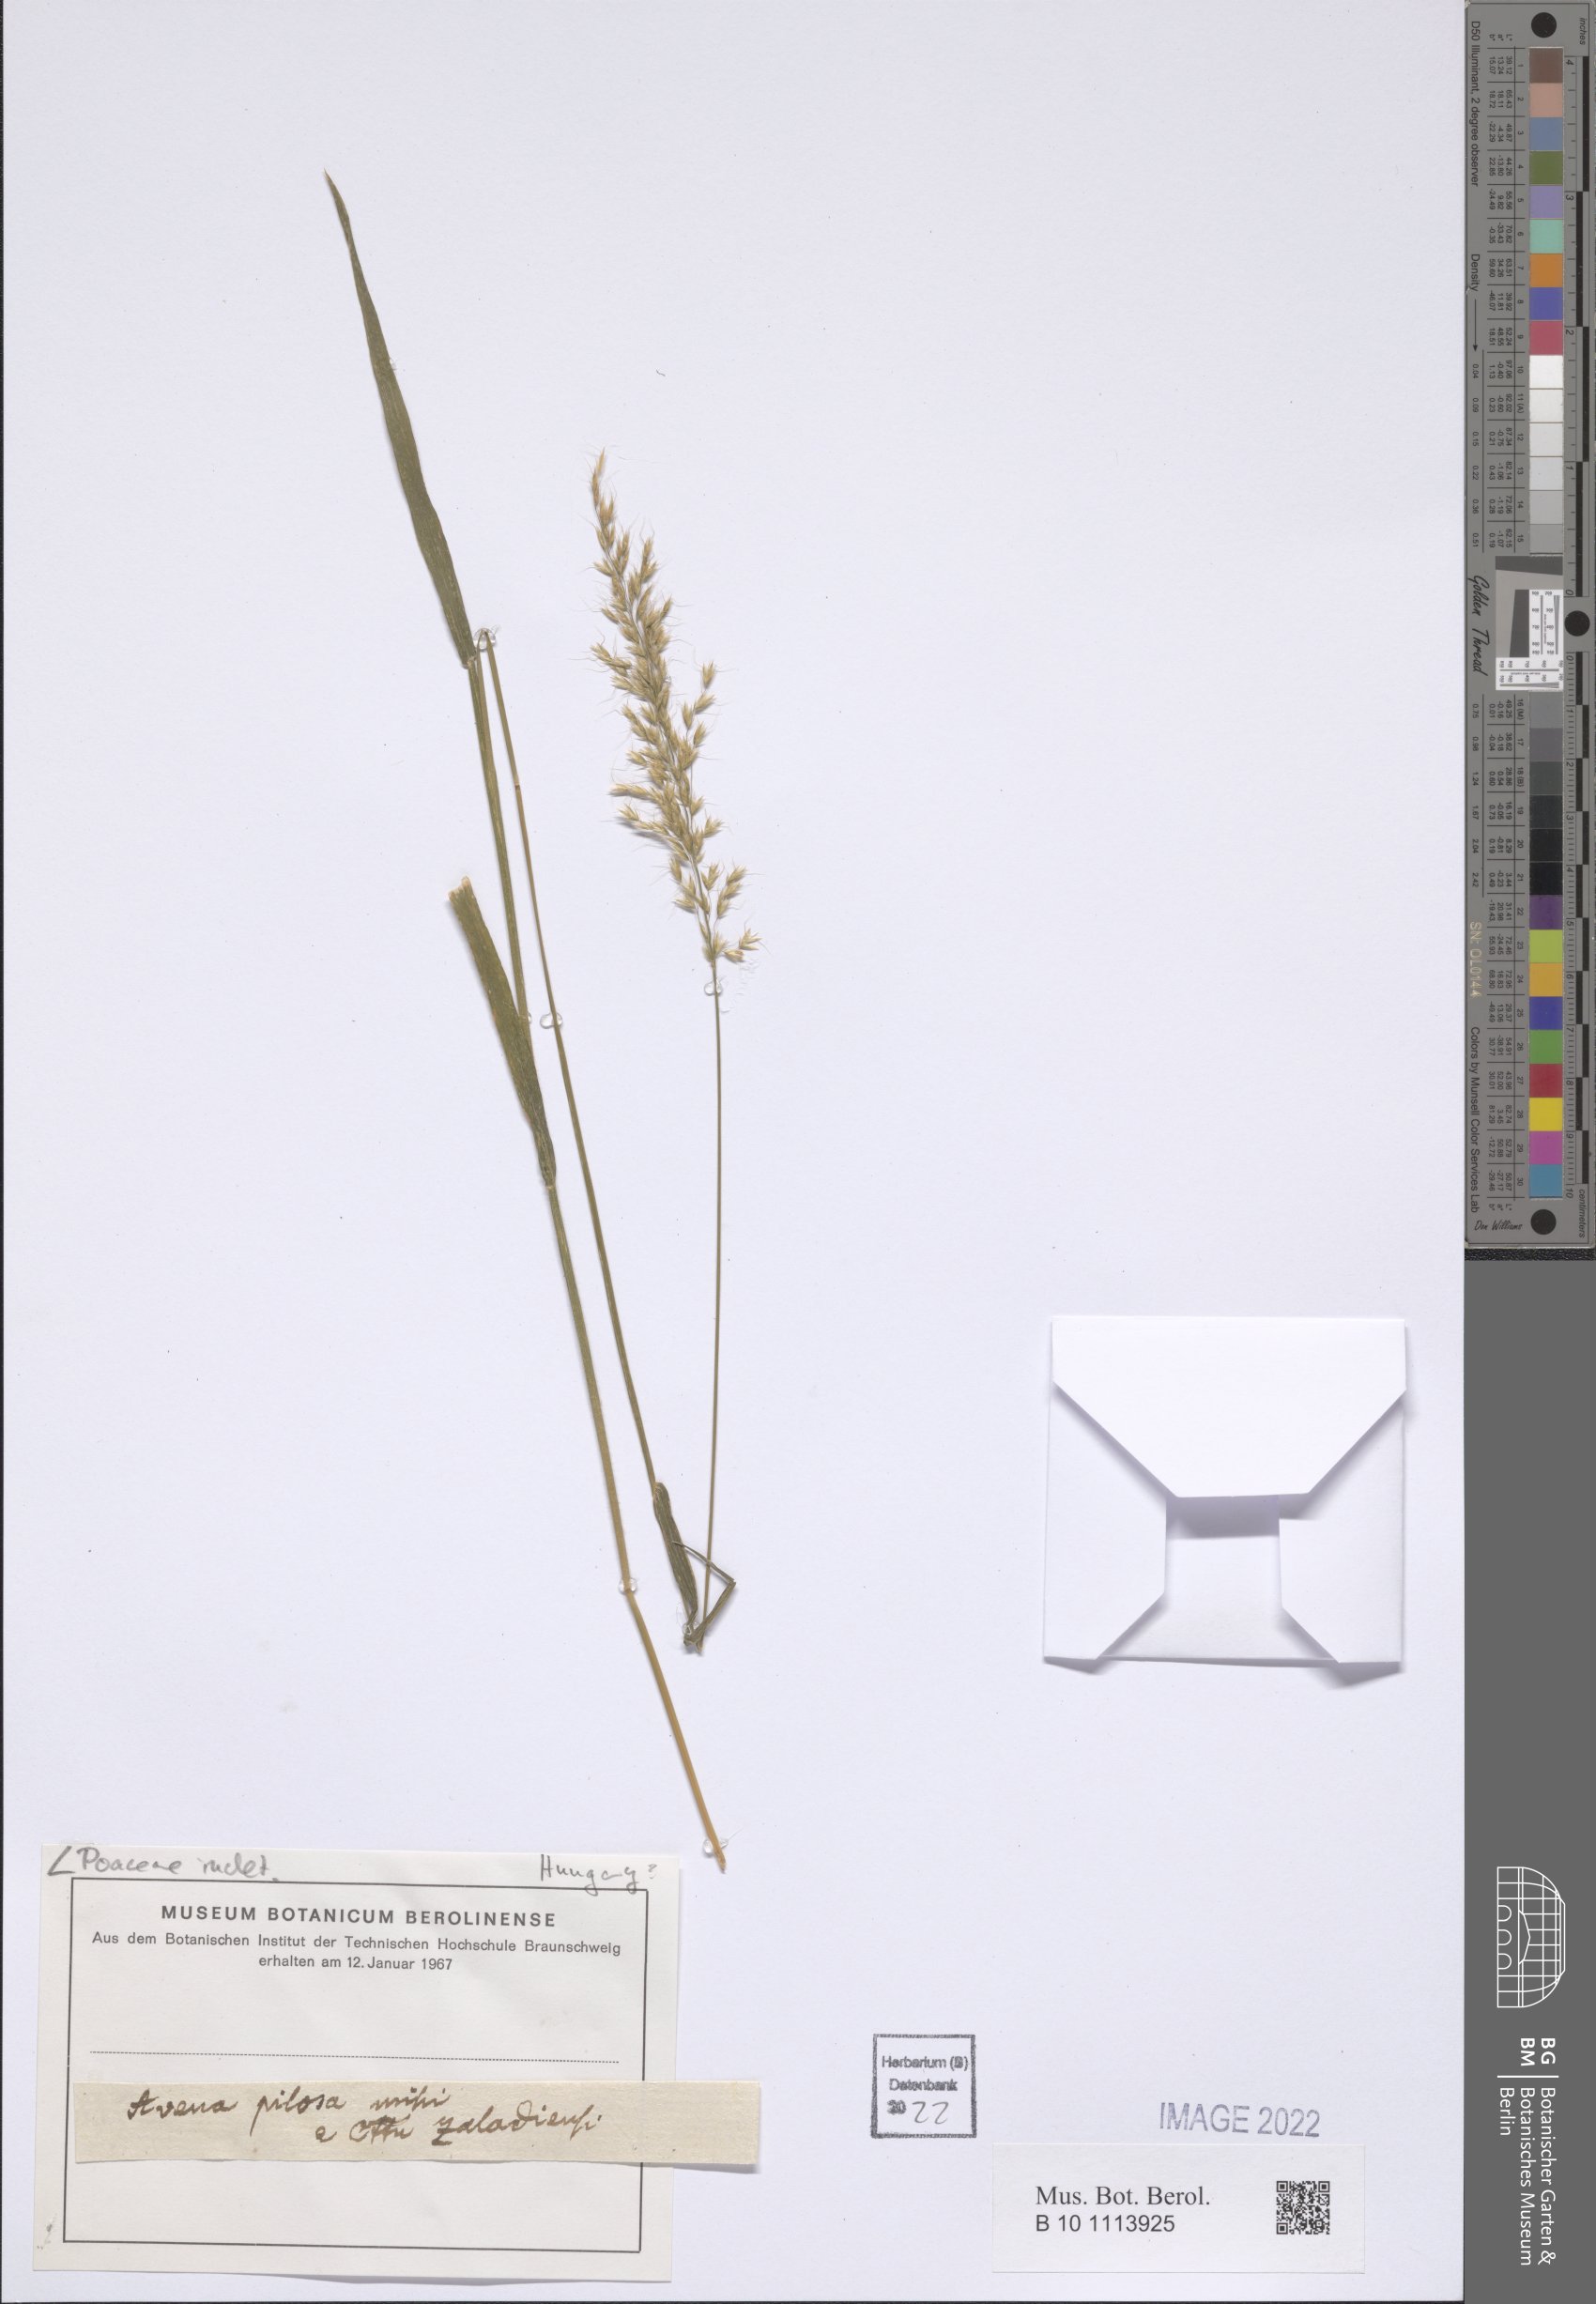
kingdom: Plantae
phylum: Tracheophyta
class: Liliopsida
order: Poales
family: Poaceae
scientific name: Poaceae
